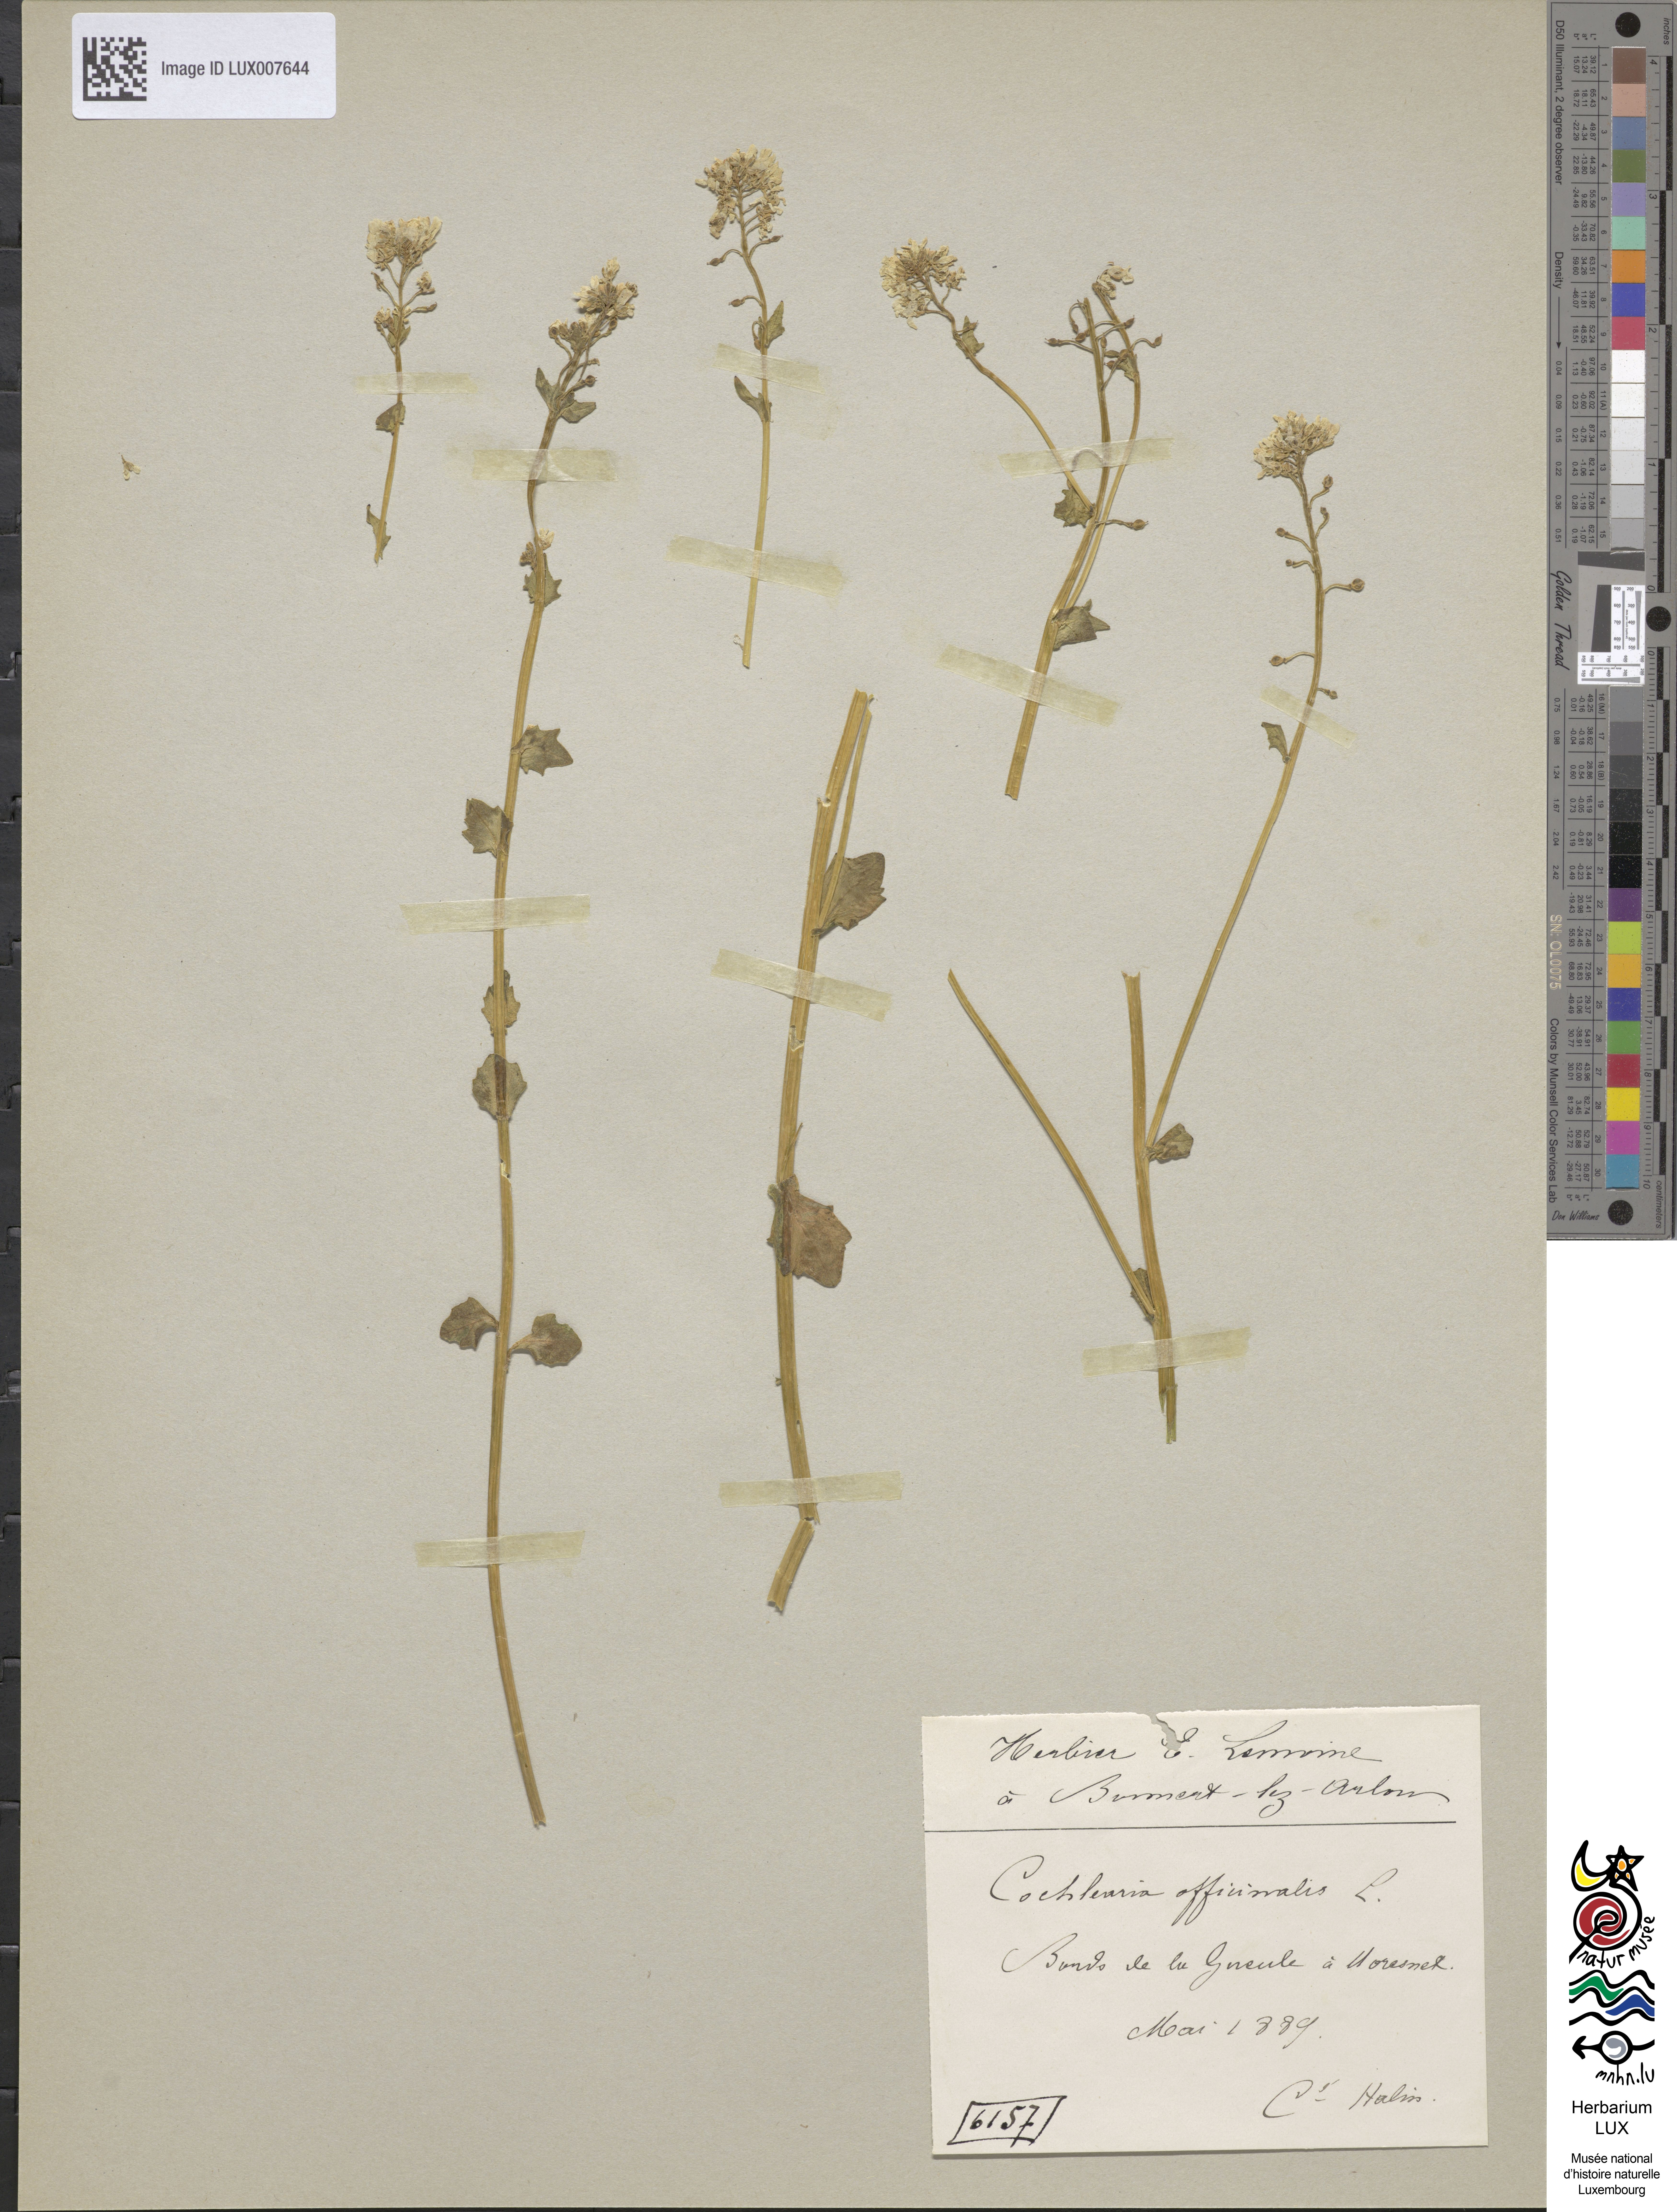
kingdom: Plantae
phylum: Tracheophyta
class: Magnoliopsida
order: Brassicales
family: Brassicaceae
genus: Cochlearia
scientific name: Cochlearia officinalis
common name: Scurvy-grass
